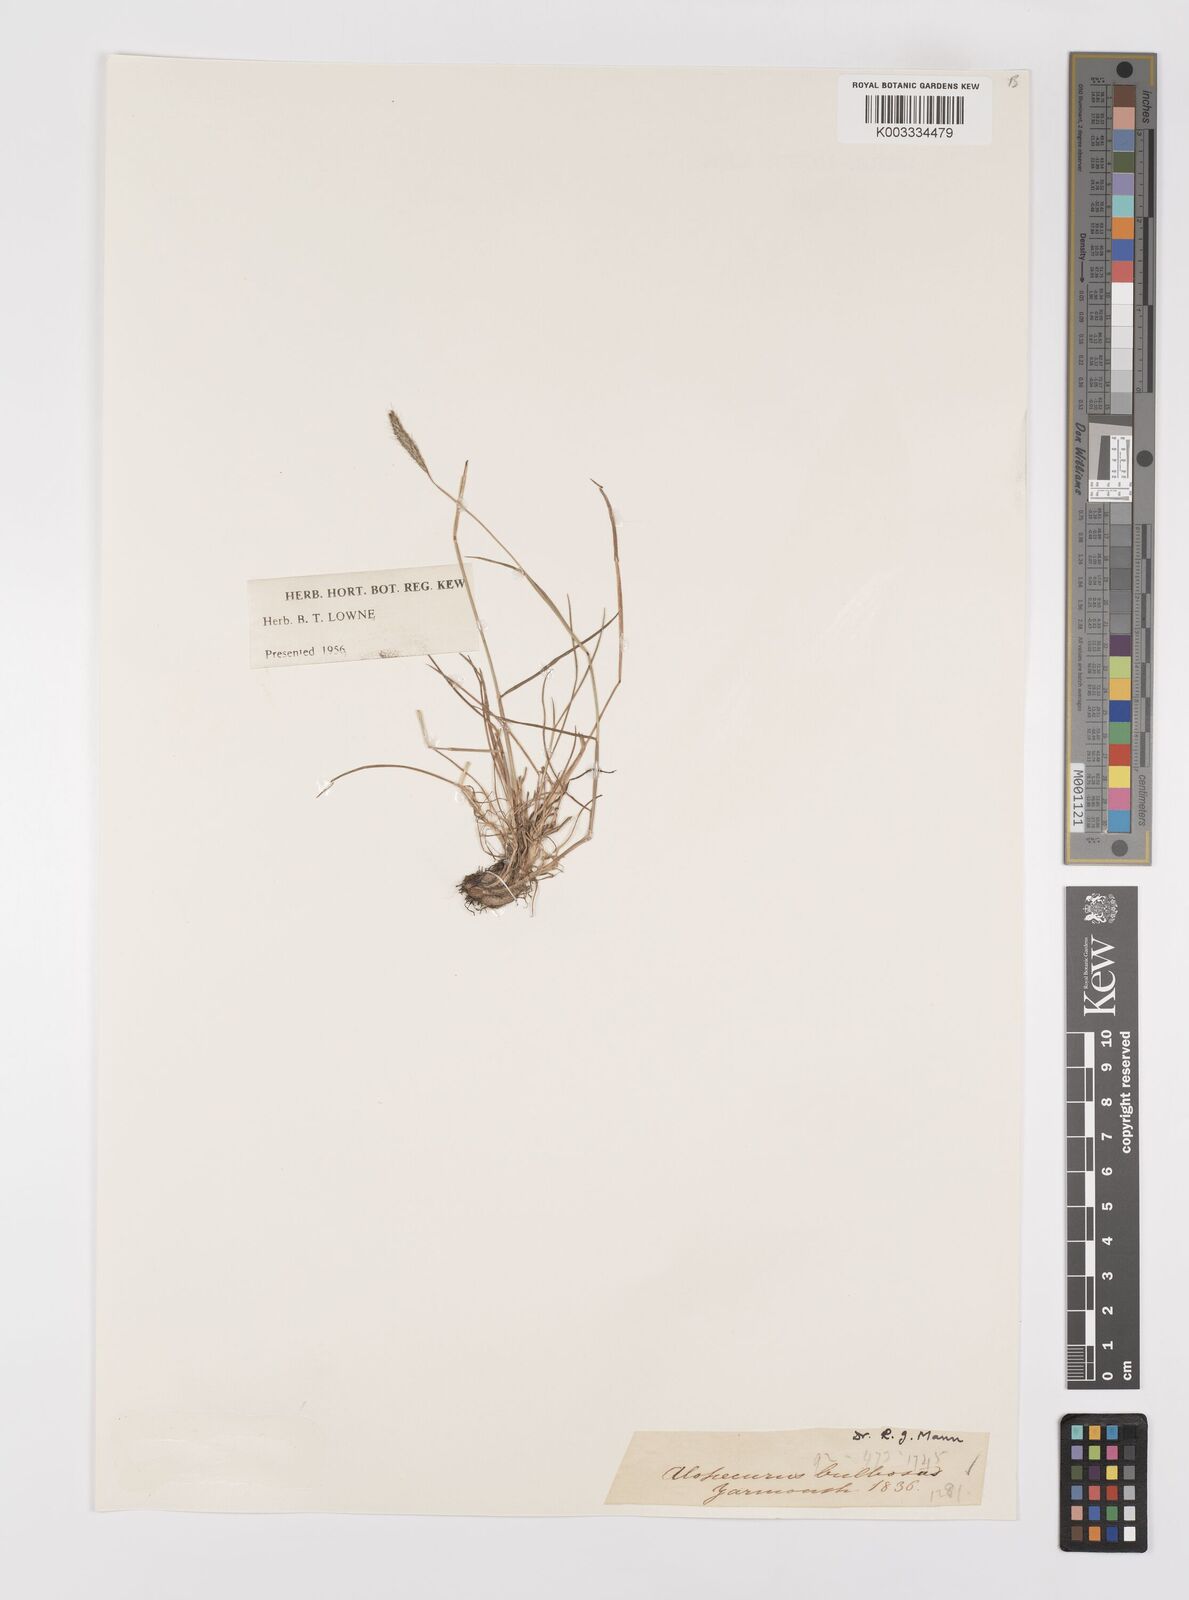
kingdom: Plantae
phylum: Tracheophyta
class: Liliopsida
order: Poales
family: Poaceae
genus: Alopecurus
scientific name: Alopecurus bulbosus
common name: Bulbous foxtail
